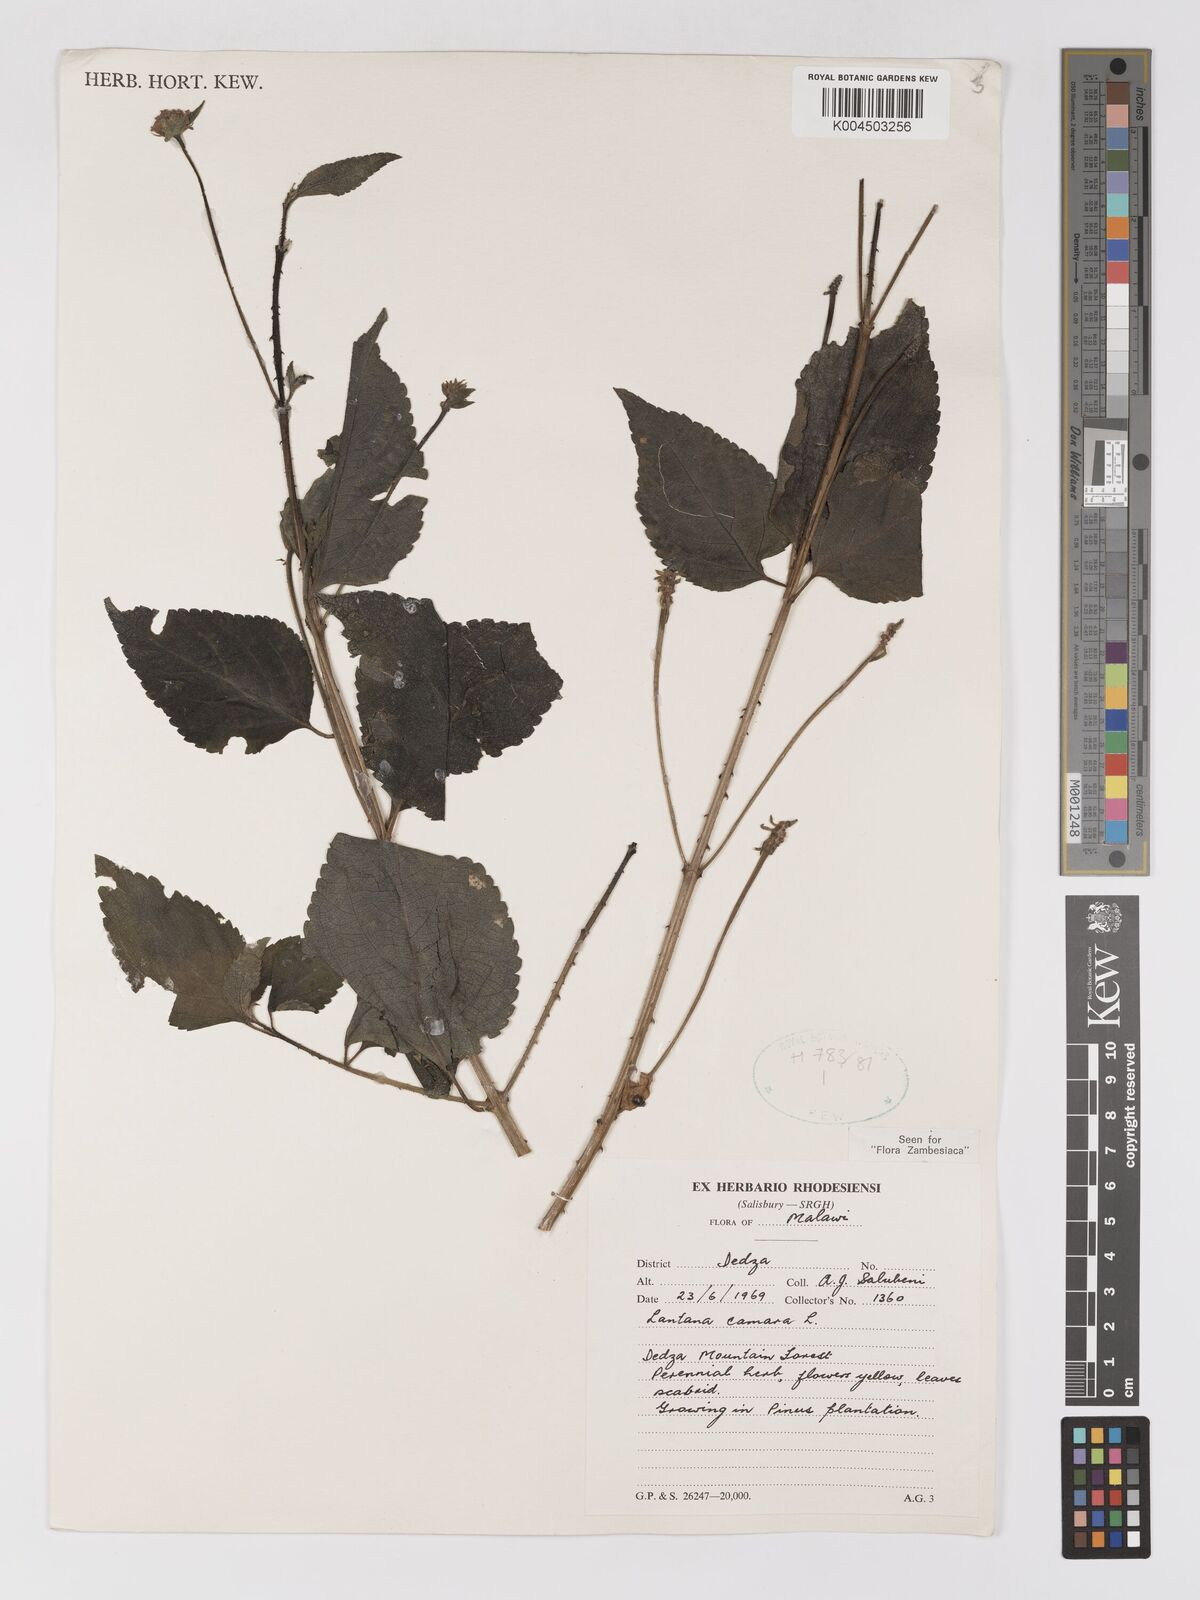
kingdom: Plantae
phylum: Tracheophyta
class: Magnoliopsida
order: Lamiales
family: Verbenaceae
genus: Lantana
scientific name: Lantana camara
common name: Lantana
